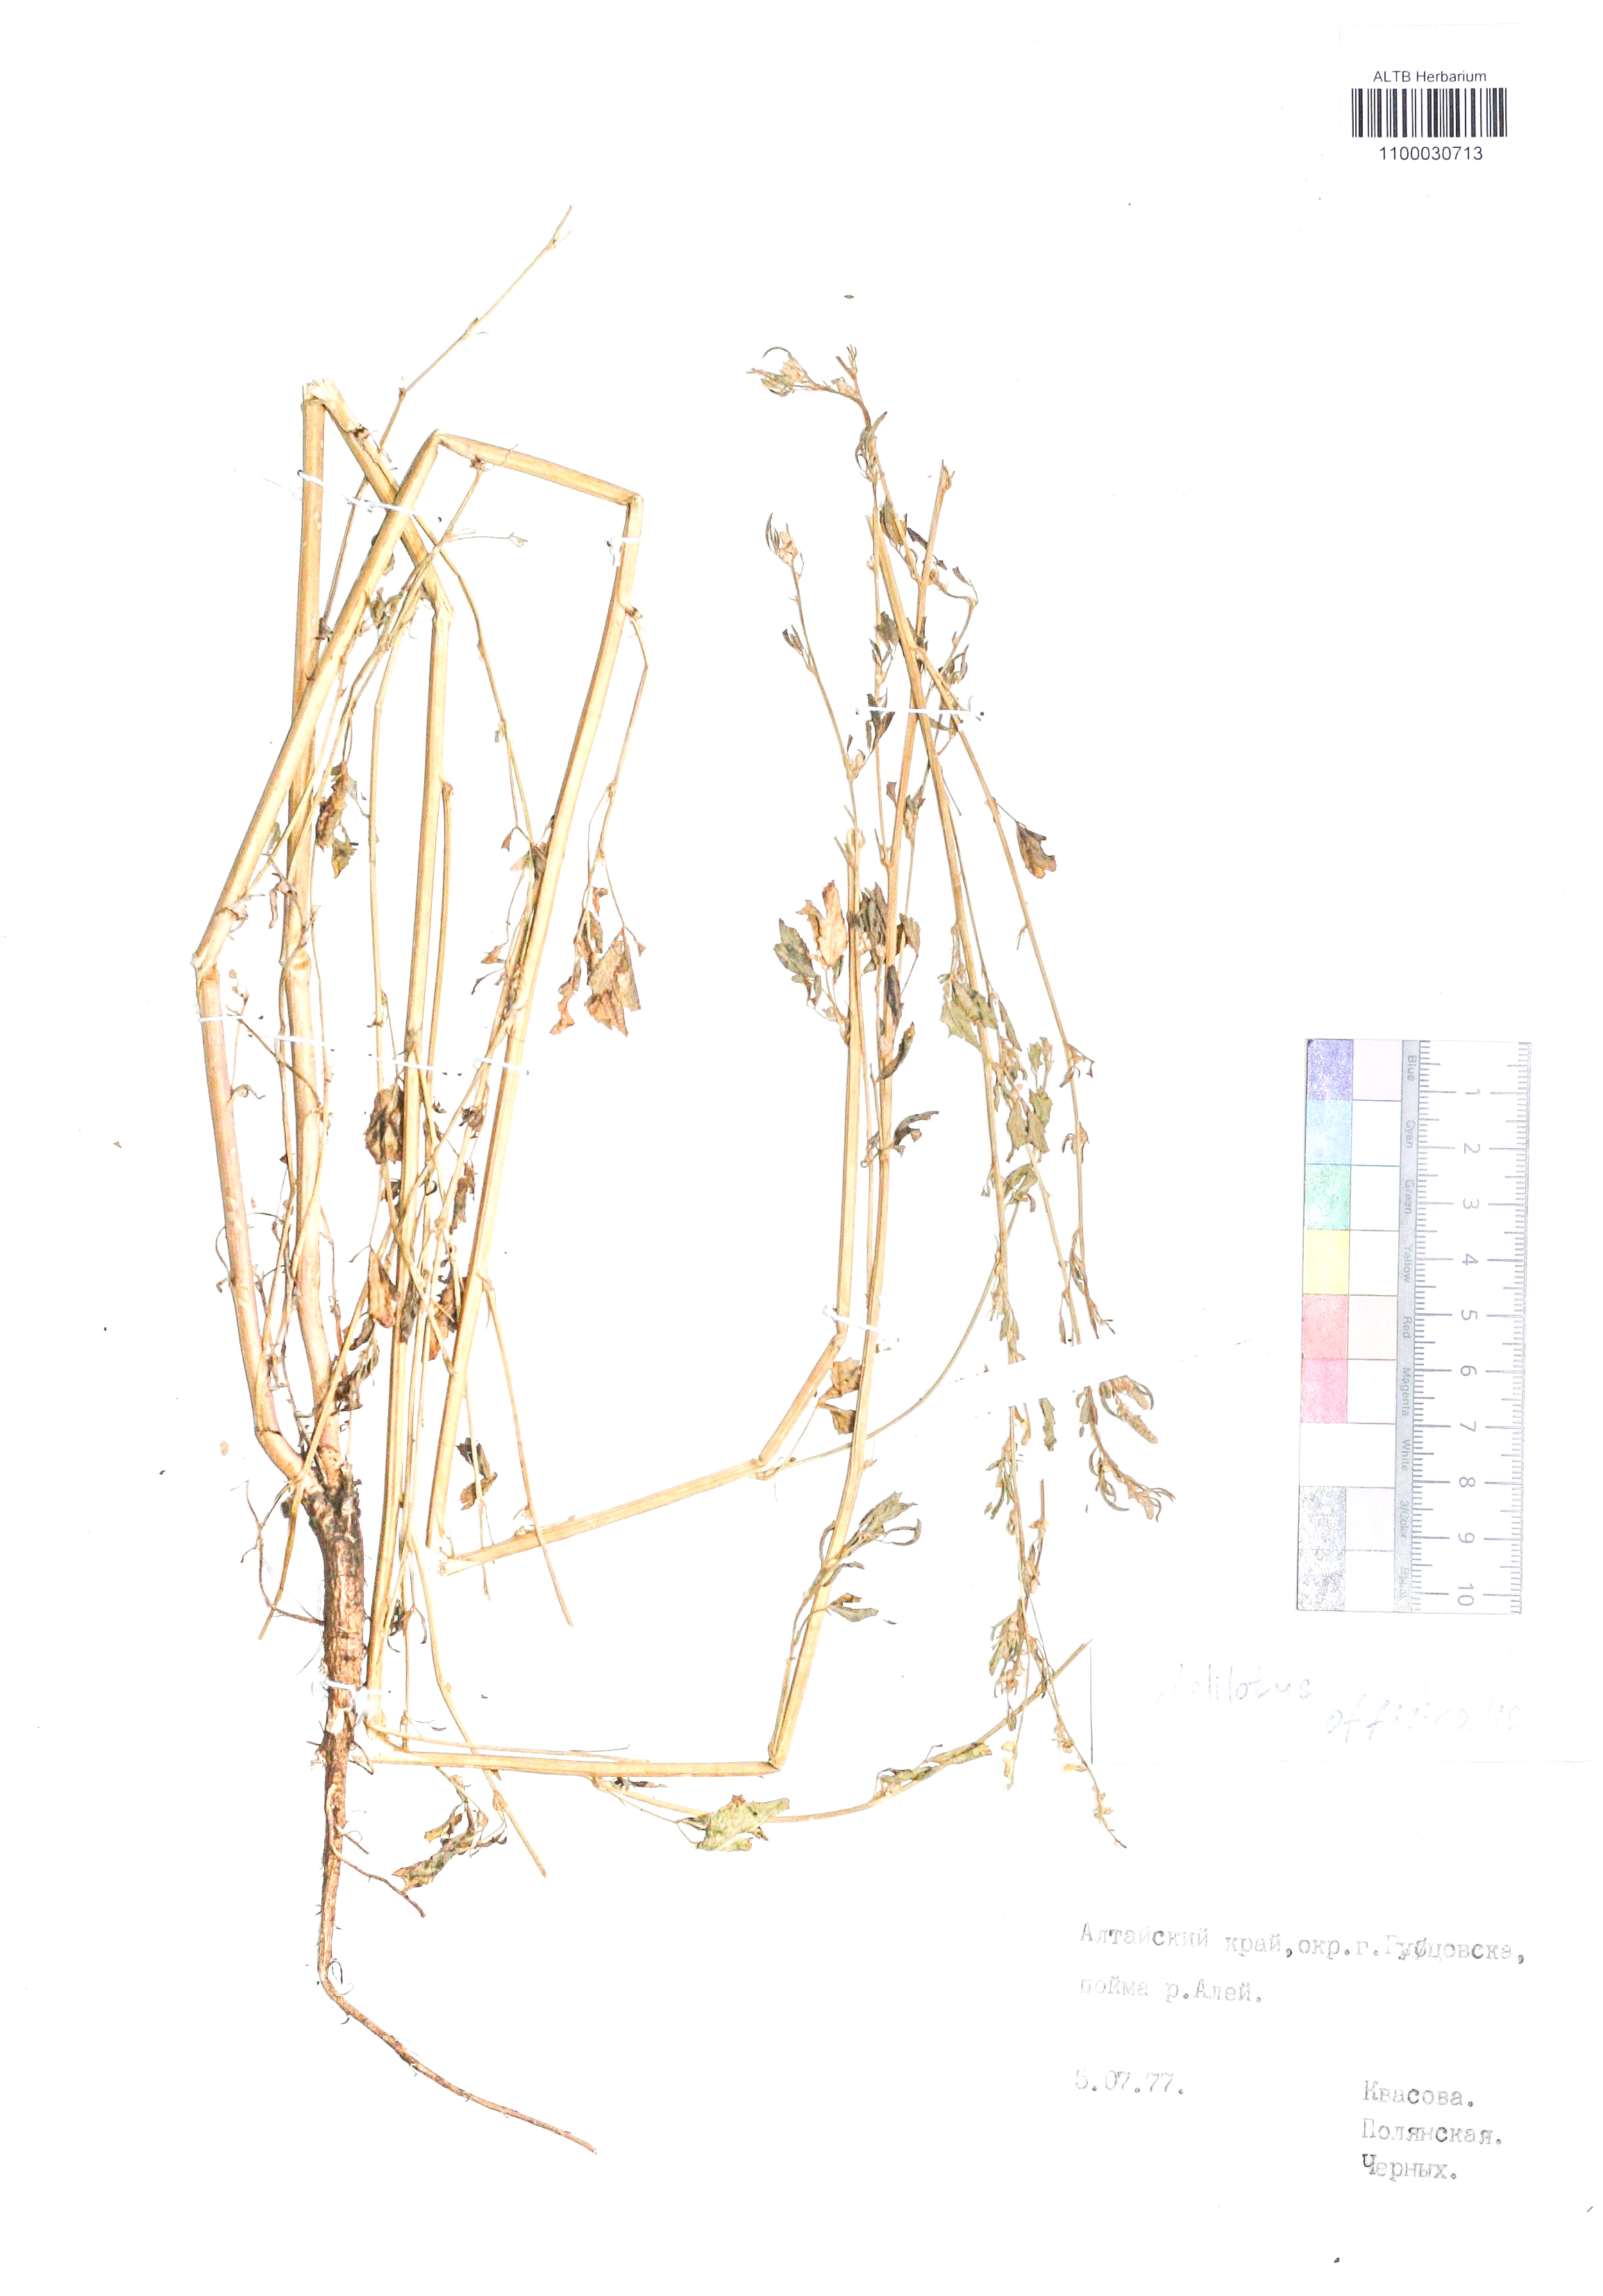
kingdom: Plantae
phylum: Tracheophyta
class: Magnoliopsida
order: Fabales
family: Fabaceae
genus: Melilotus
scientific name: Melilotus officinalis
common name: Sweetclover
